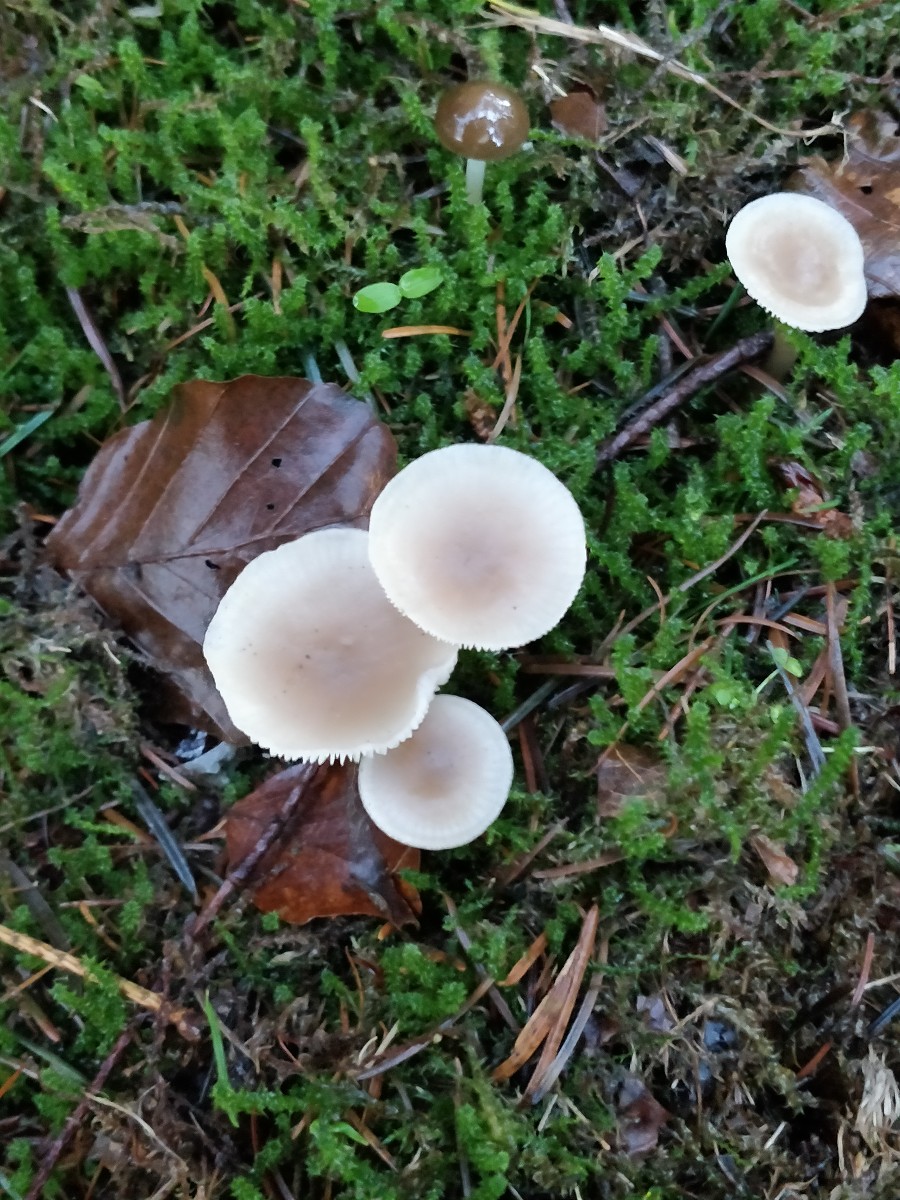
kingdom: Fungi
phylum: Basidiomycota
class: Agaricomycetes
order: Agaricales
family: Tricholomataceae
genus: Clitocybe
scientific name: Clitocybe
